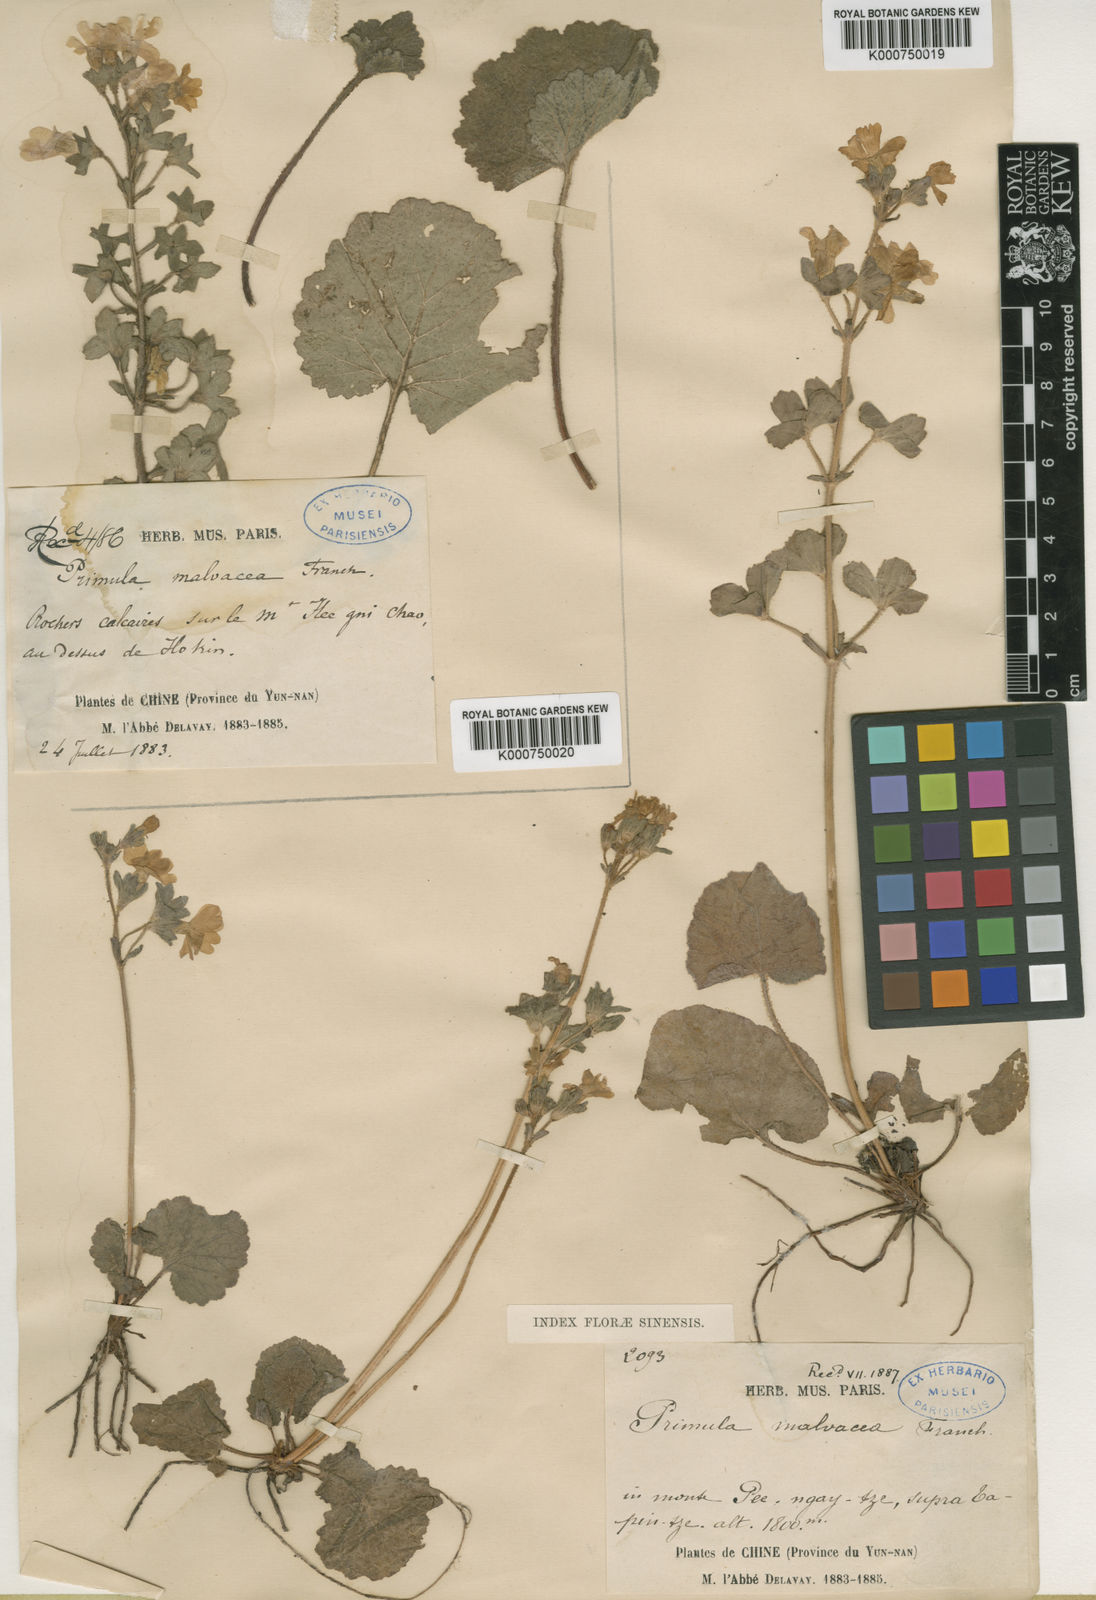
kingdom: Plantae
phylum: Tracheophyta
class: Magnoliopsida
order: Ericales
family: Primulaceae
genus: Primula
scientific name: Primula malvacea
